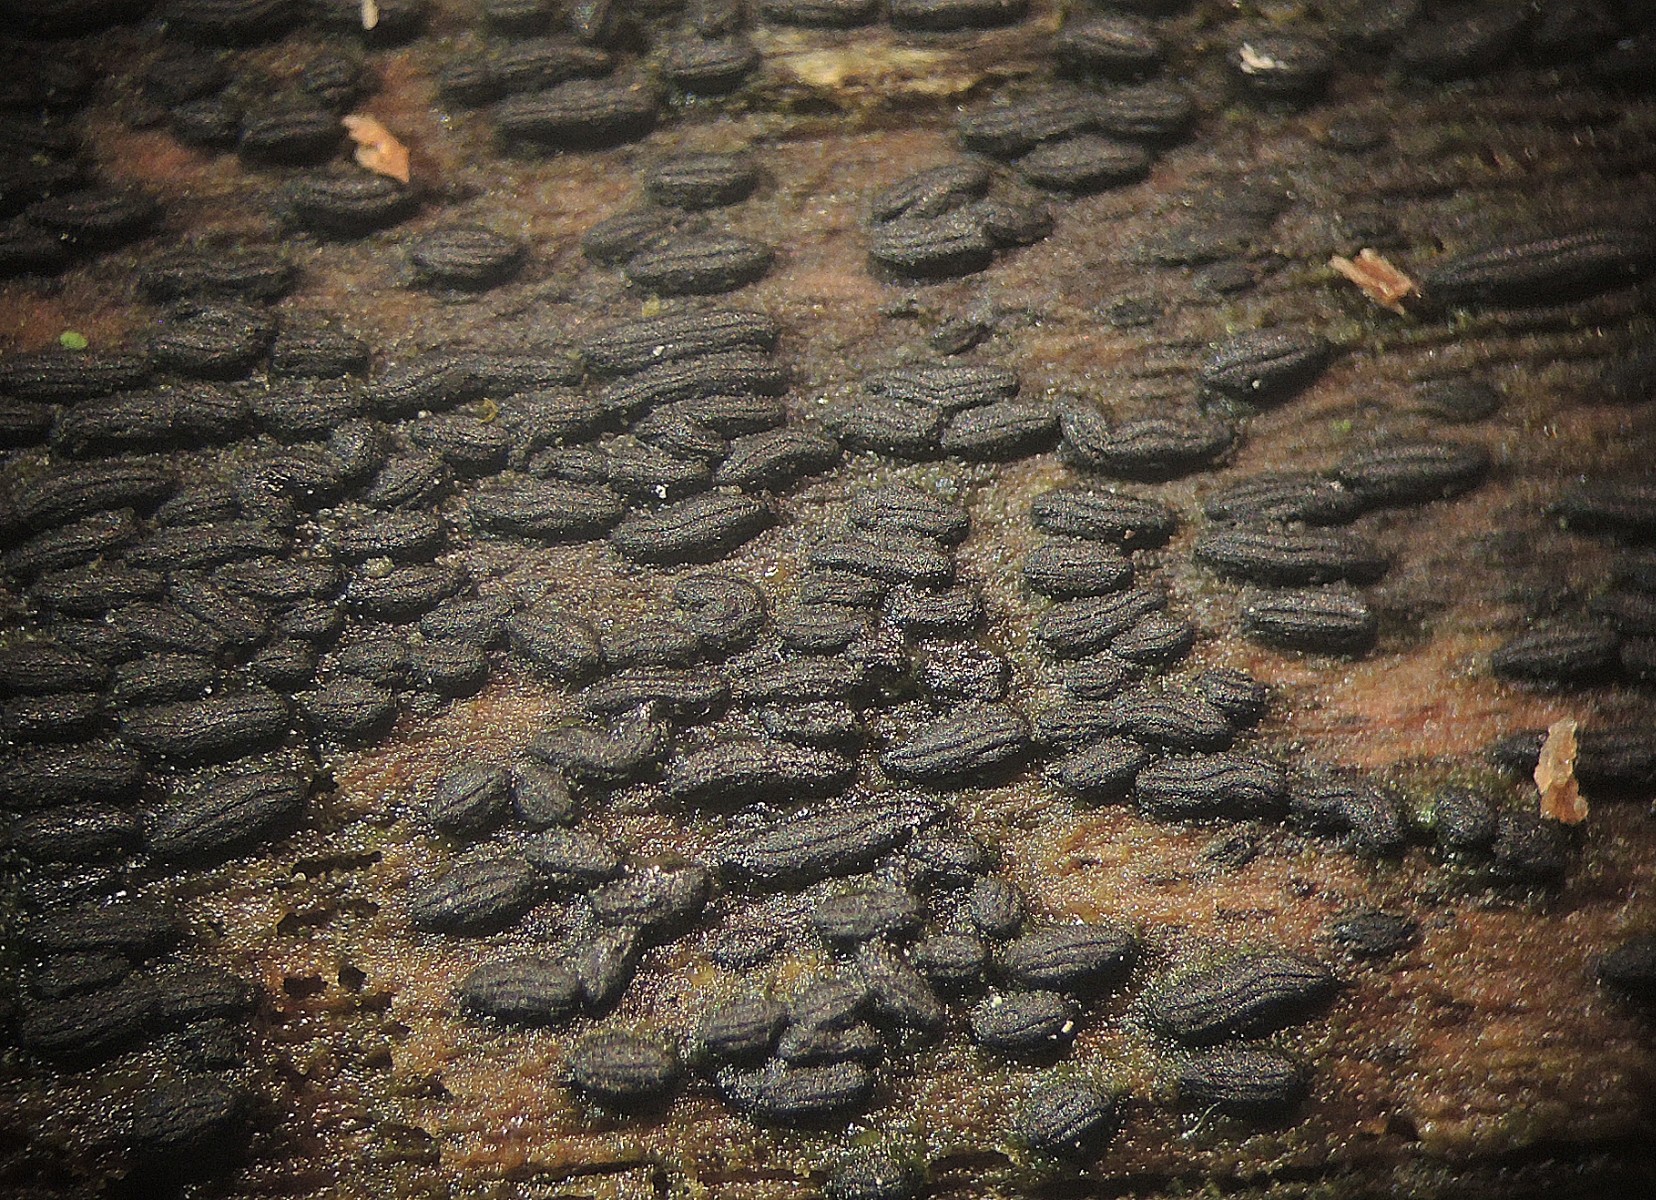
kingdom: Fungi
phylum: Ascomycota
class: Dothideomycetes
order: Hysteriales
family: Hysteriaceae
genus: Hysterium
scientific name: Hysterium acuminatum
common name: almindelig kulmund
